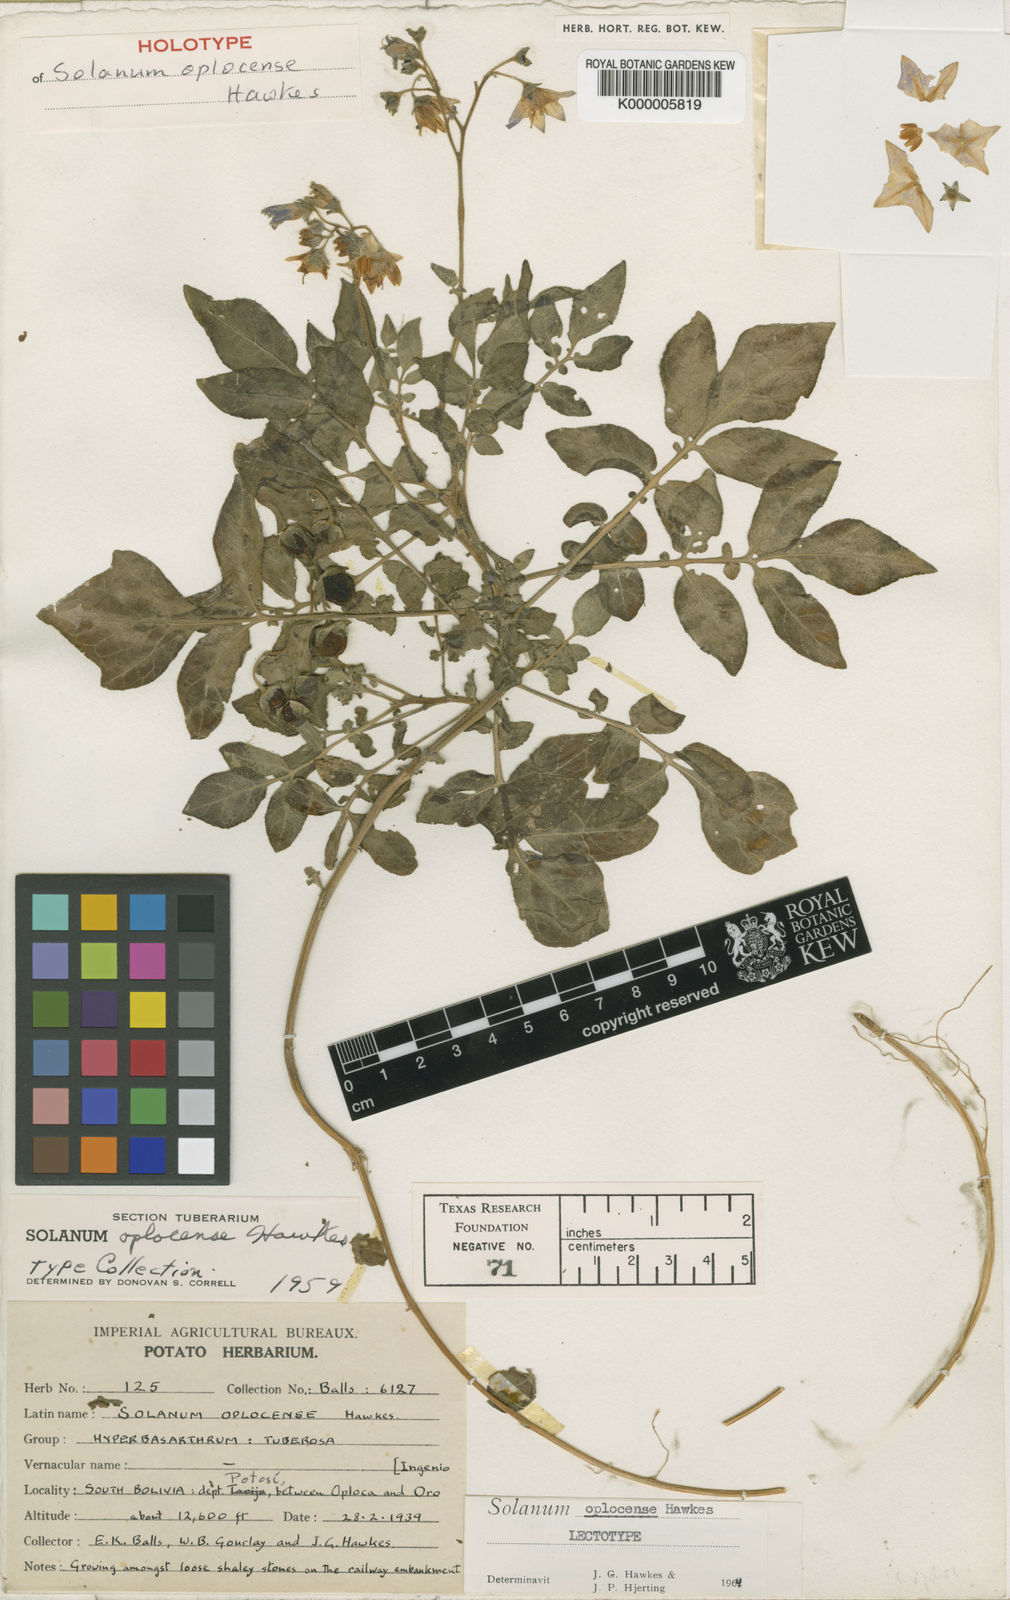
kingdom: Plantae
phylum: Tracheophyta
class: Magnoliopsida
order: Solanales
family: Solanaceae
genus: Solanum
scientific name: Solanum brevicaule
